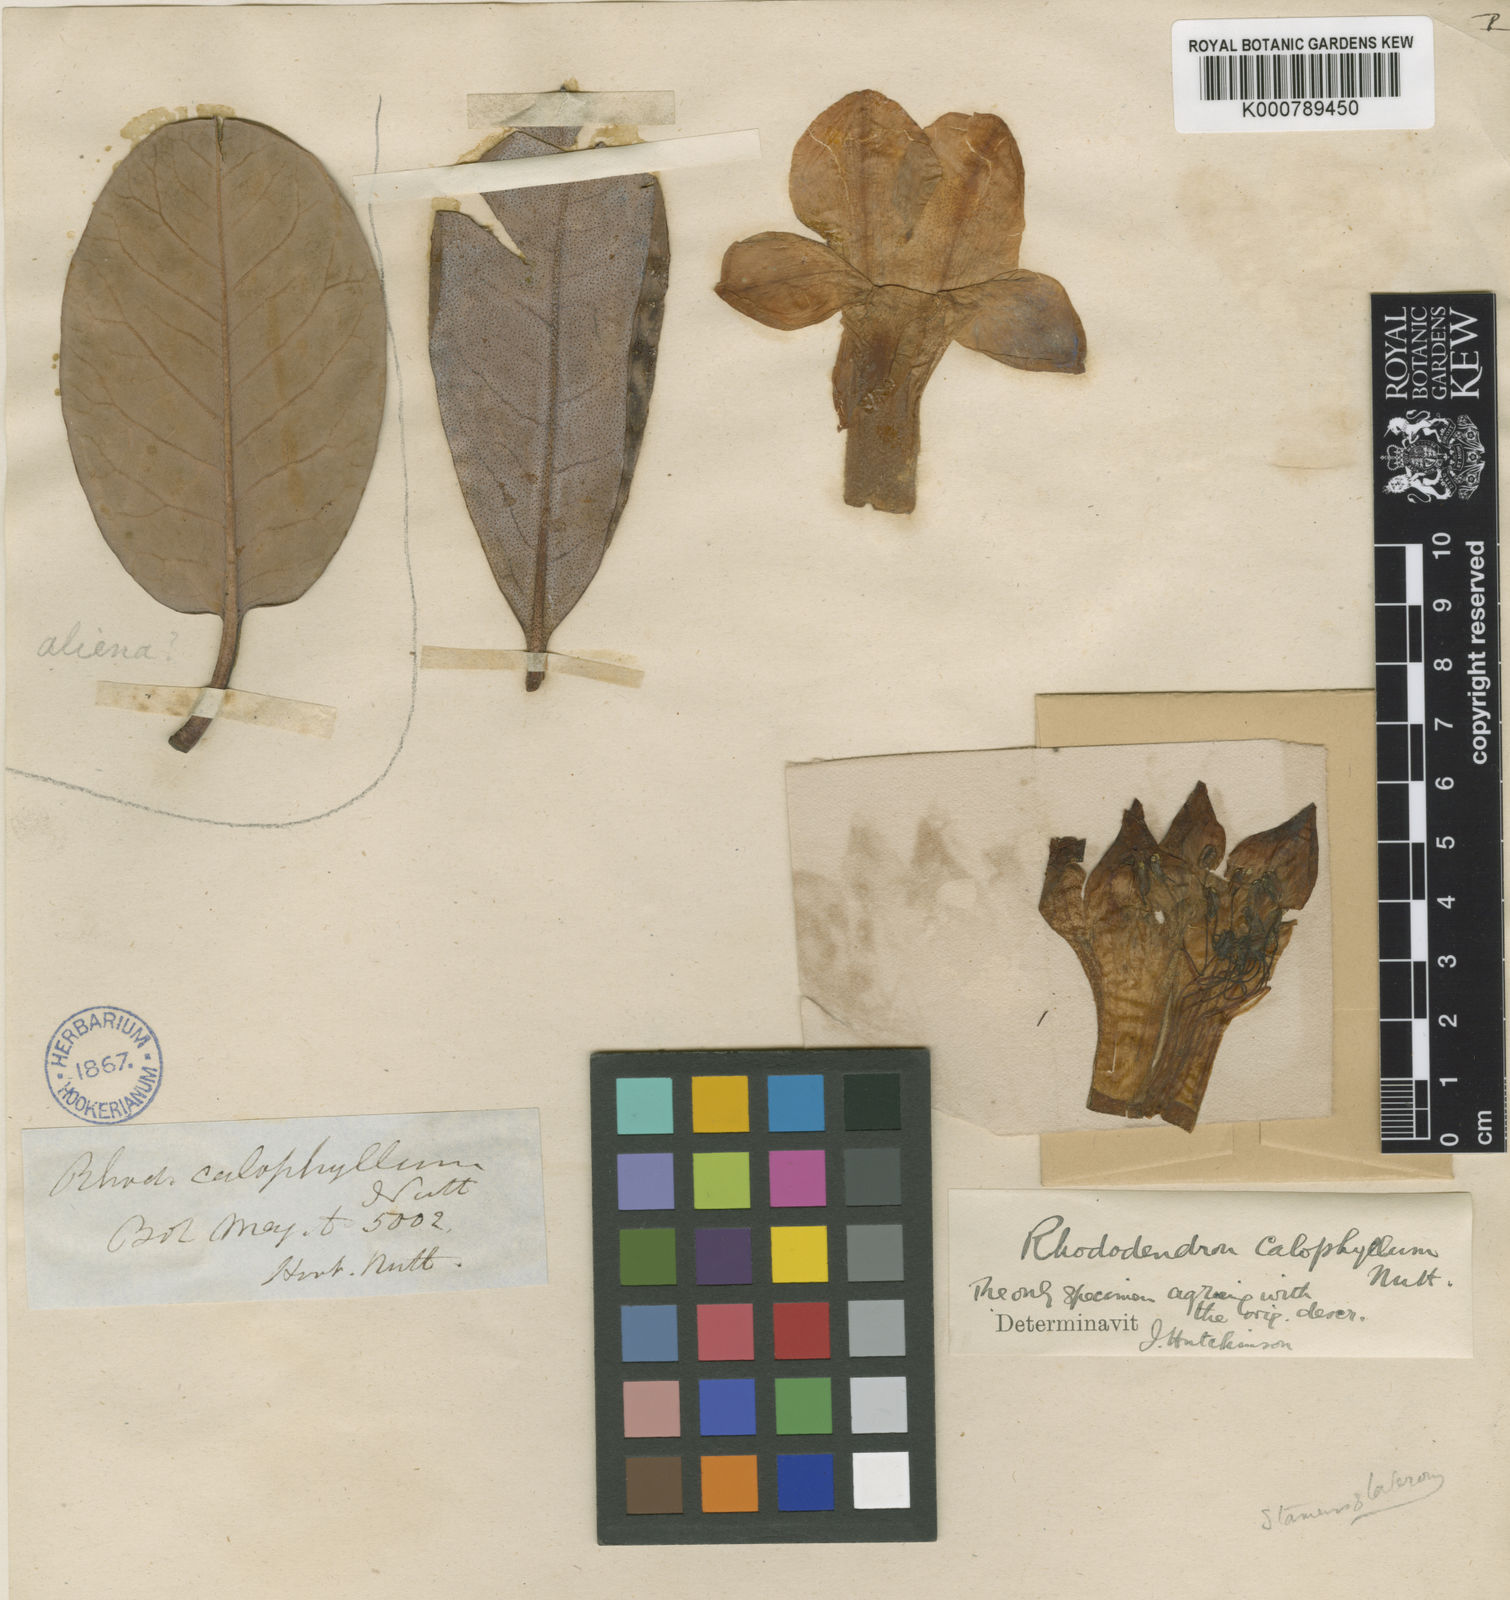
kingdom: Plantae
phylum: Tracheophyta
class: Magnoliopsida
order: Ericales
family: Ericaceae
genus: Rhododendron
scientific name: Rhododendron maddenii
